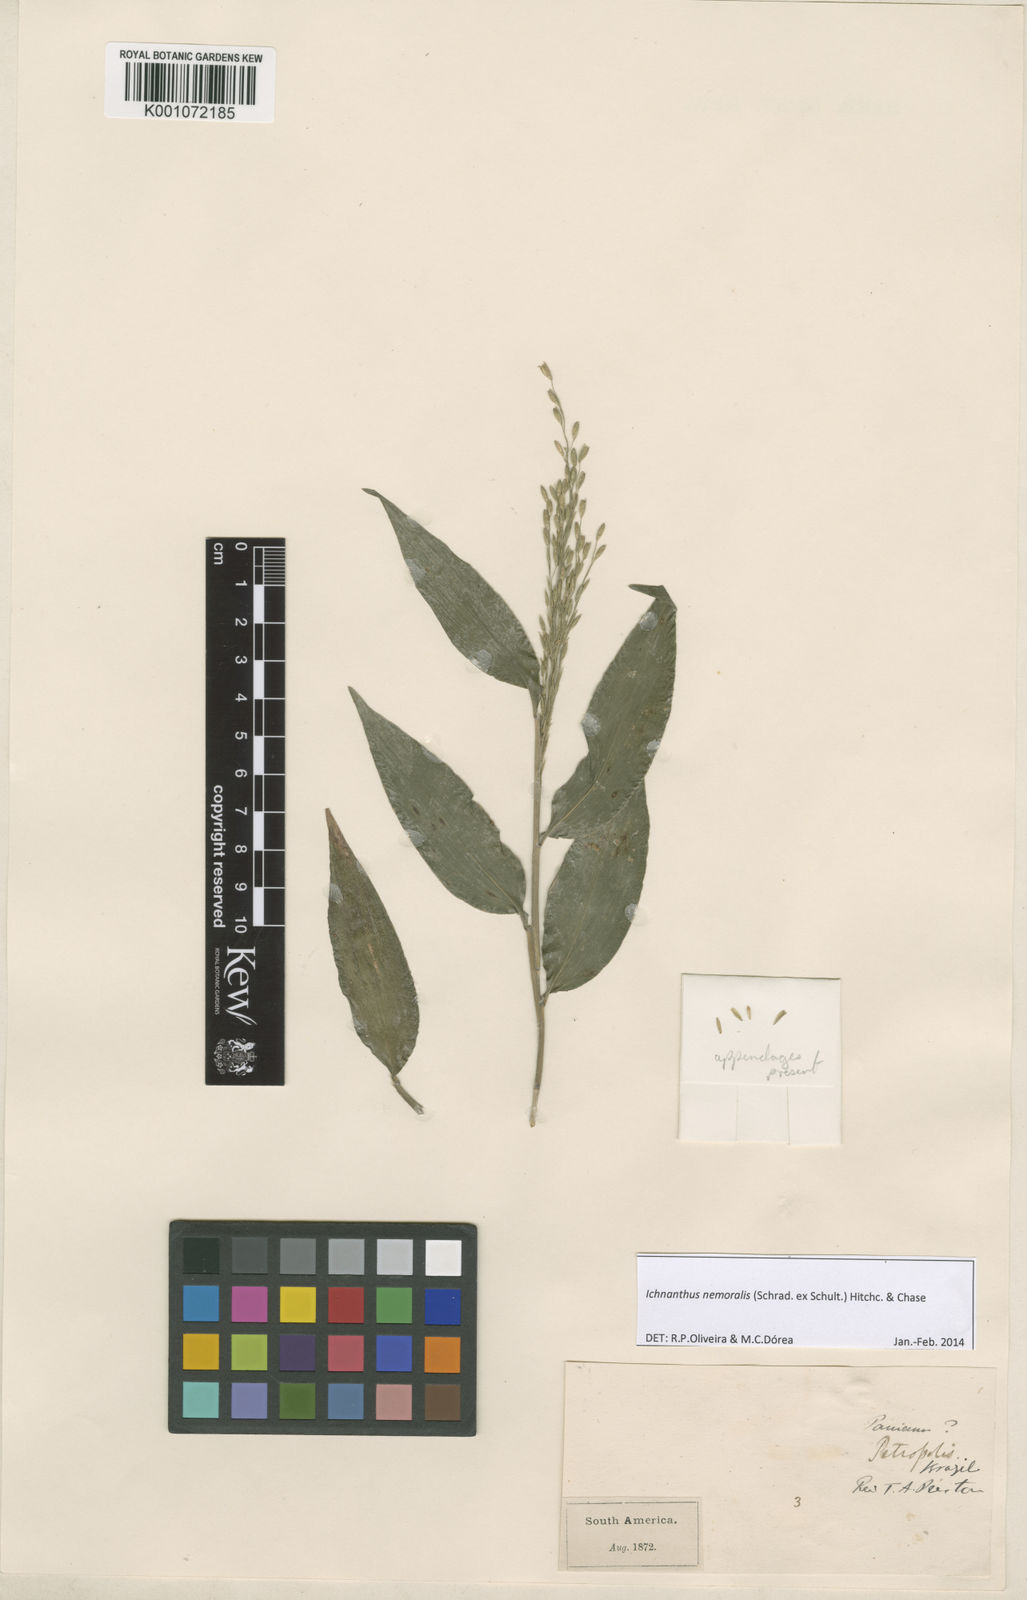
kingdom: Plantae
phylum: Tracheophyta
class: Liliopsida
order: Poales
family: Poaceae
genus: Ichnanthus
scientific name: Ichnanthus nemoralis
